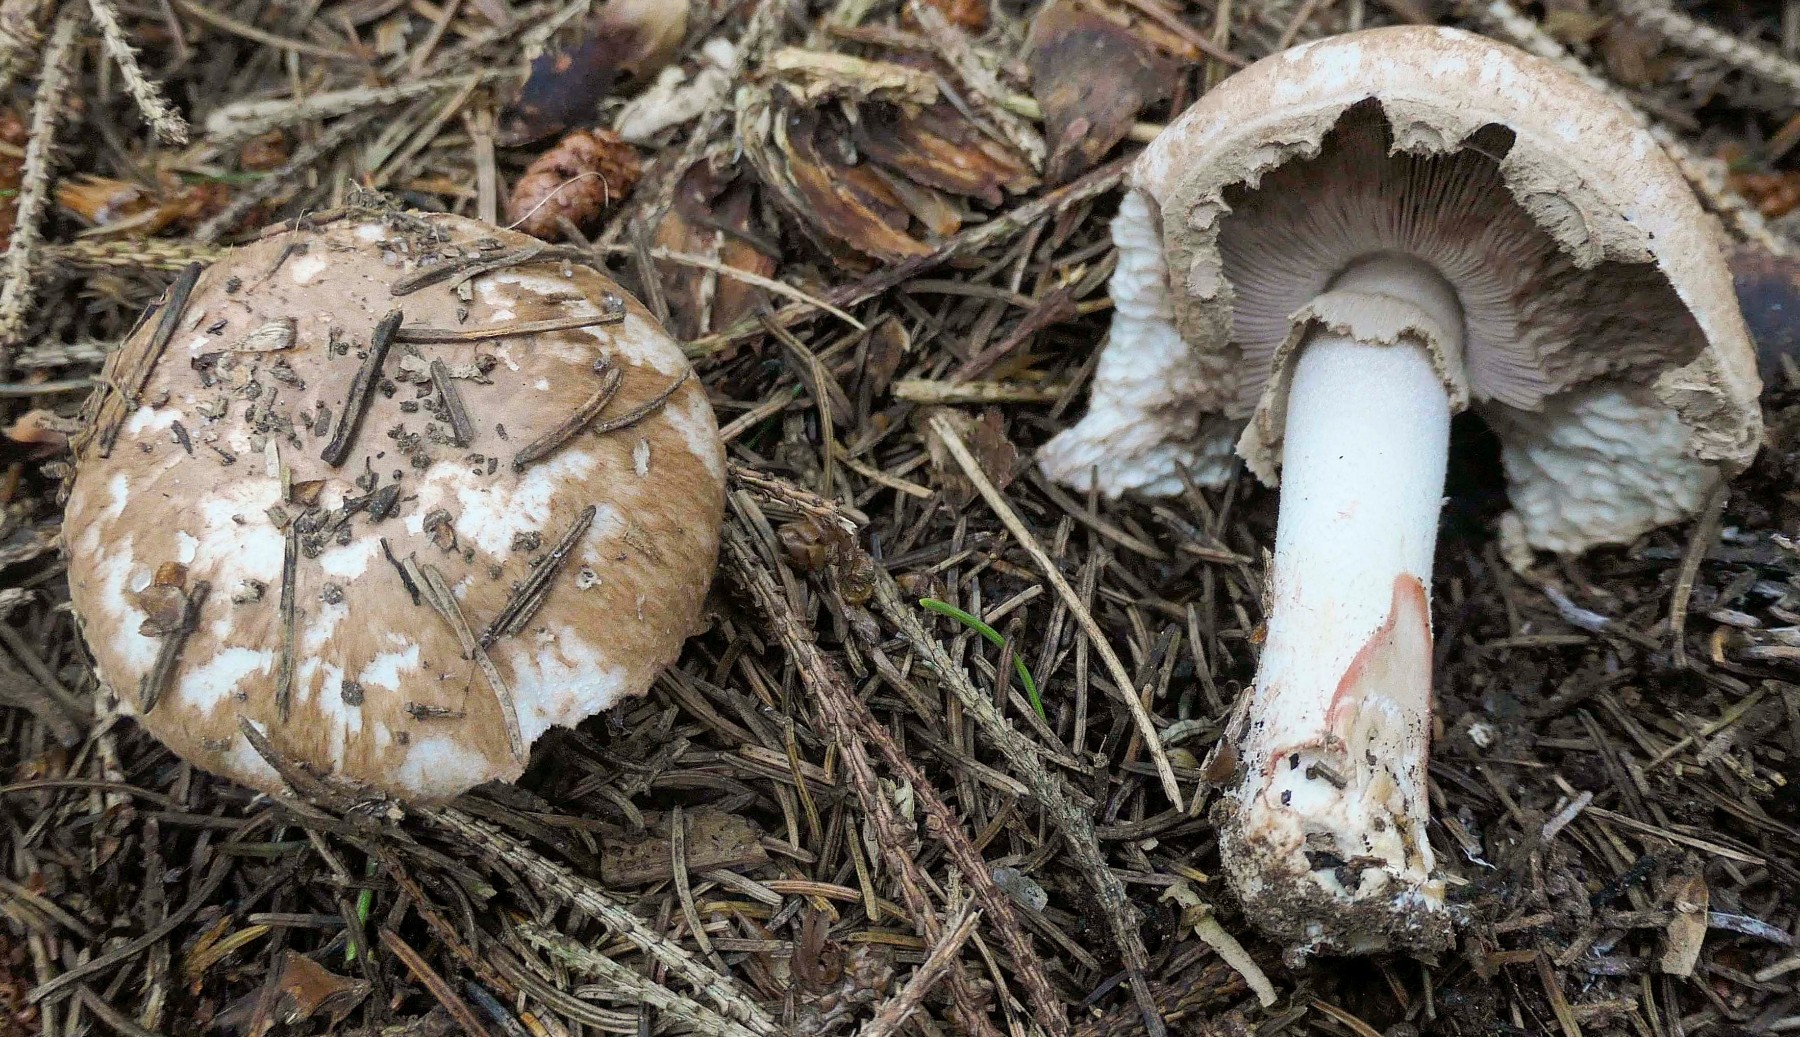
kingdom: Fungi
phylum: Basidiomycota
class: Agaricomycetes
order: Agaricales
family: Agaricaceae
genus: Agaricus
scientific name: Agaricus sylvaticus
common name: lille blod-champignon
